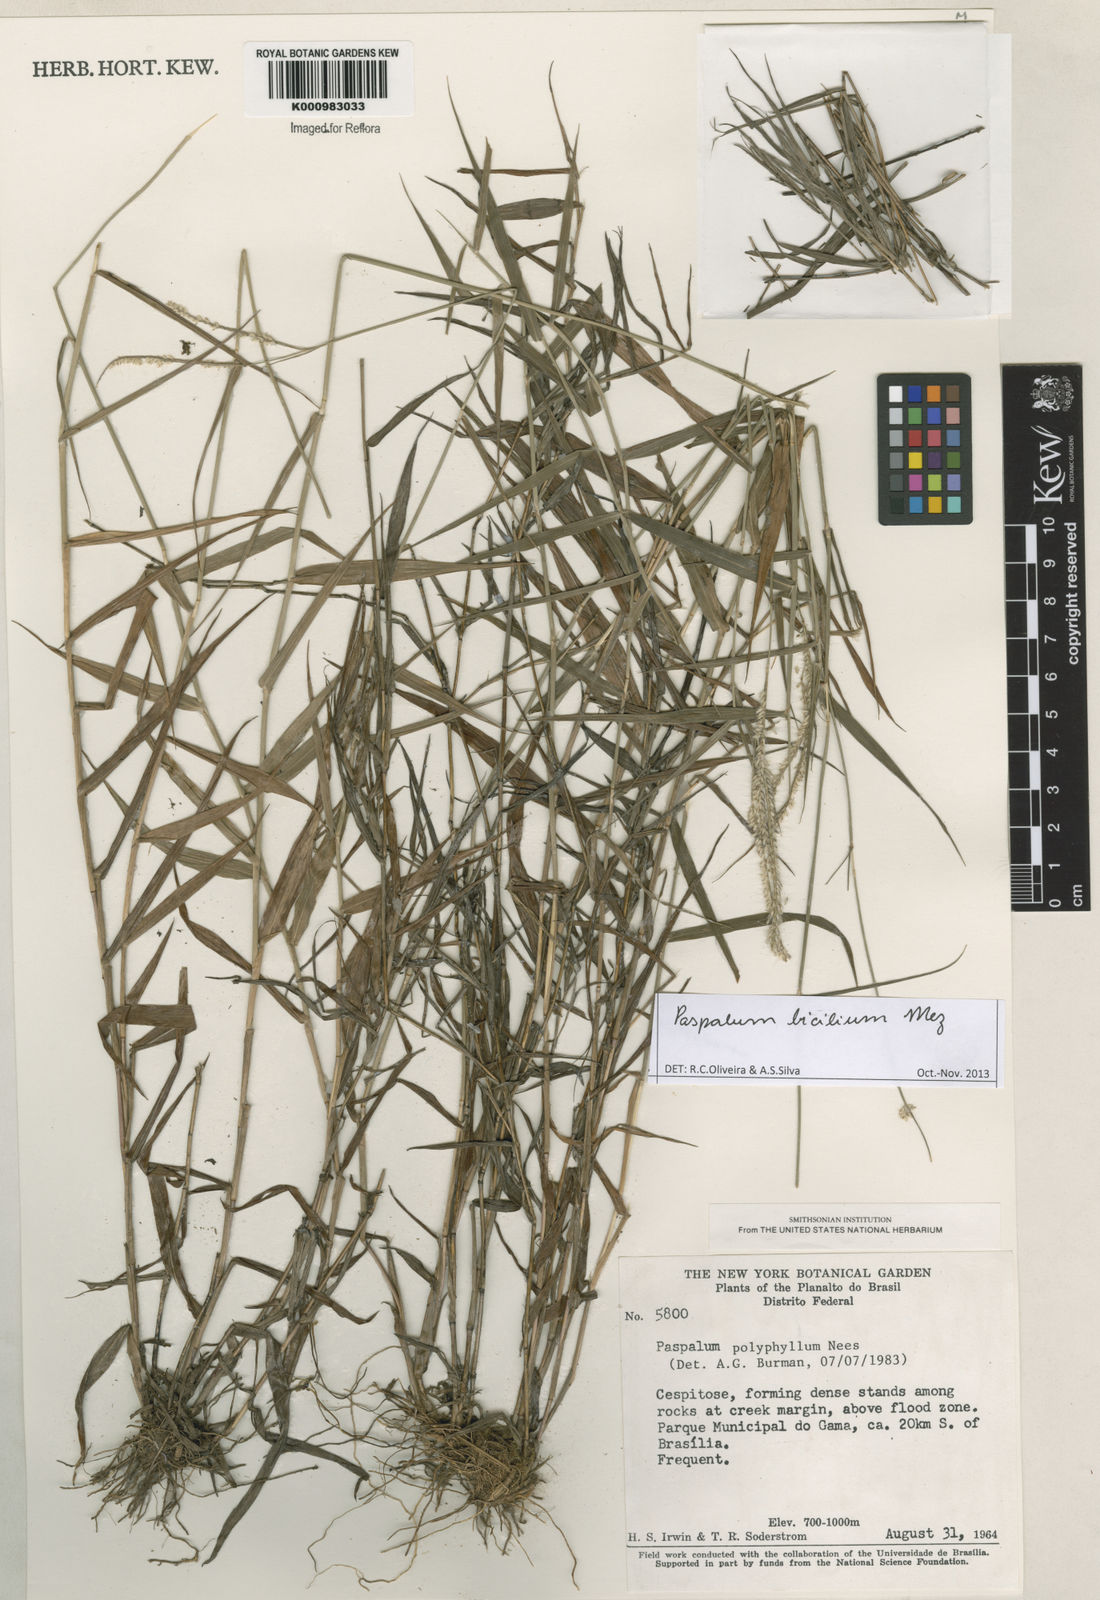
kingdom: Plantae
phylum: Tracheophyta
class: Liliopsida
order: Poales
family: Poaceae
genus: Paspalum
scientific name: Paspalum polyphyllum
